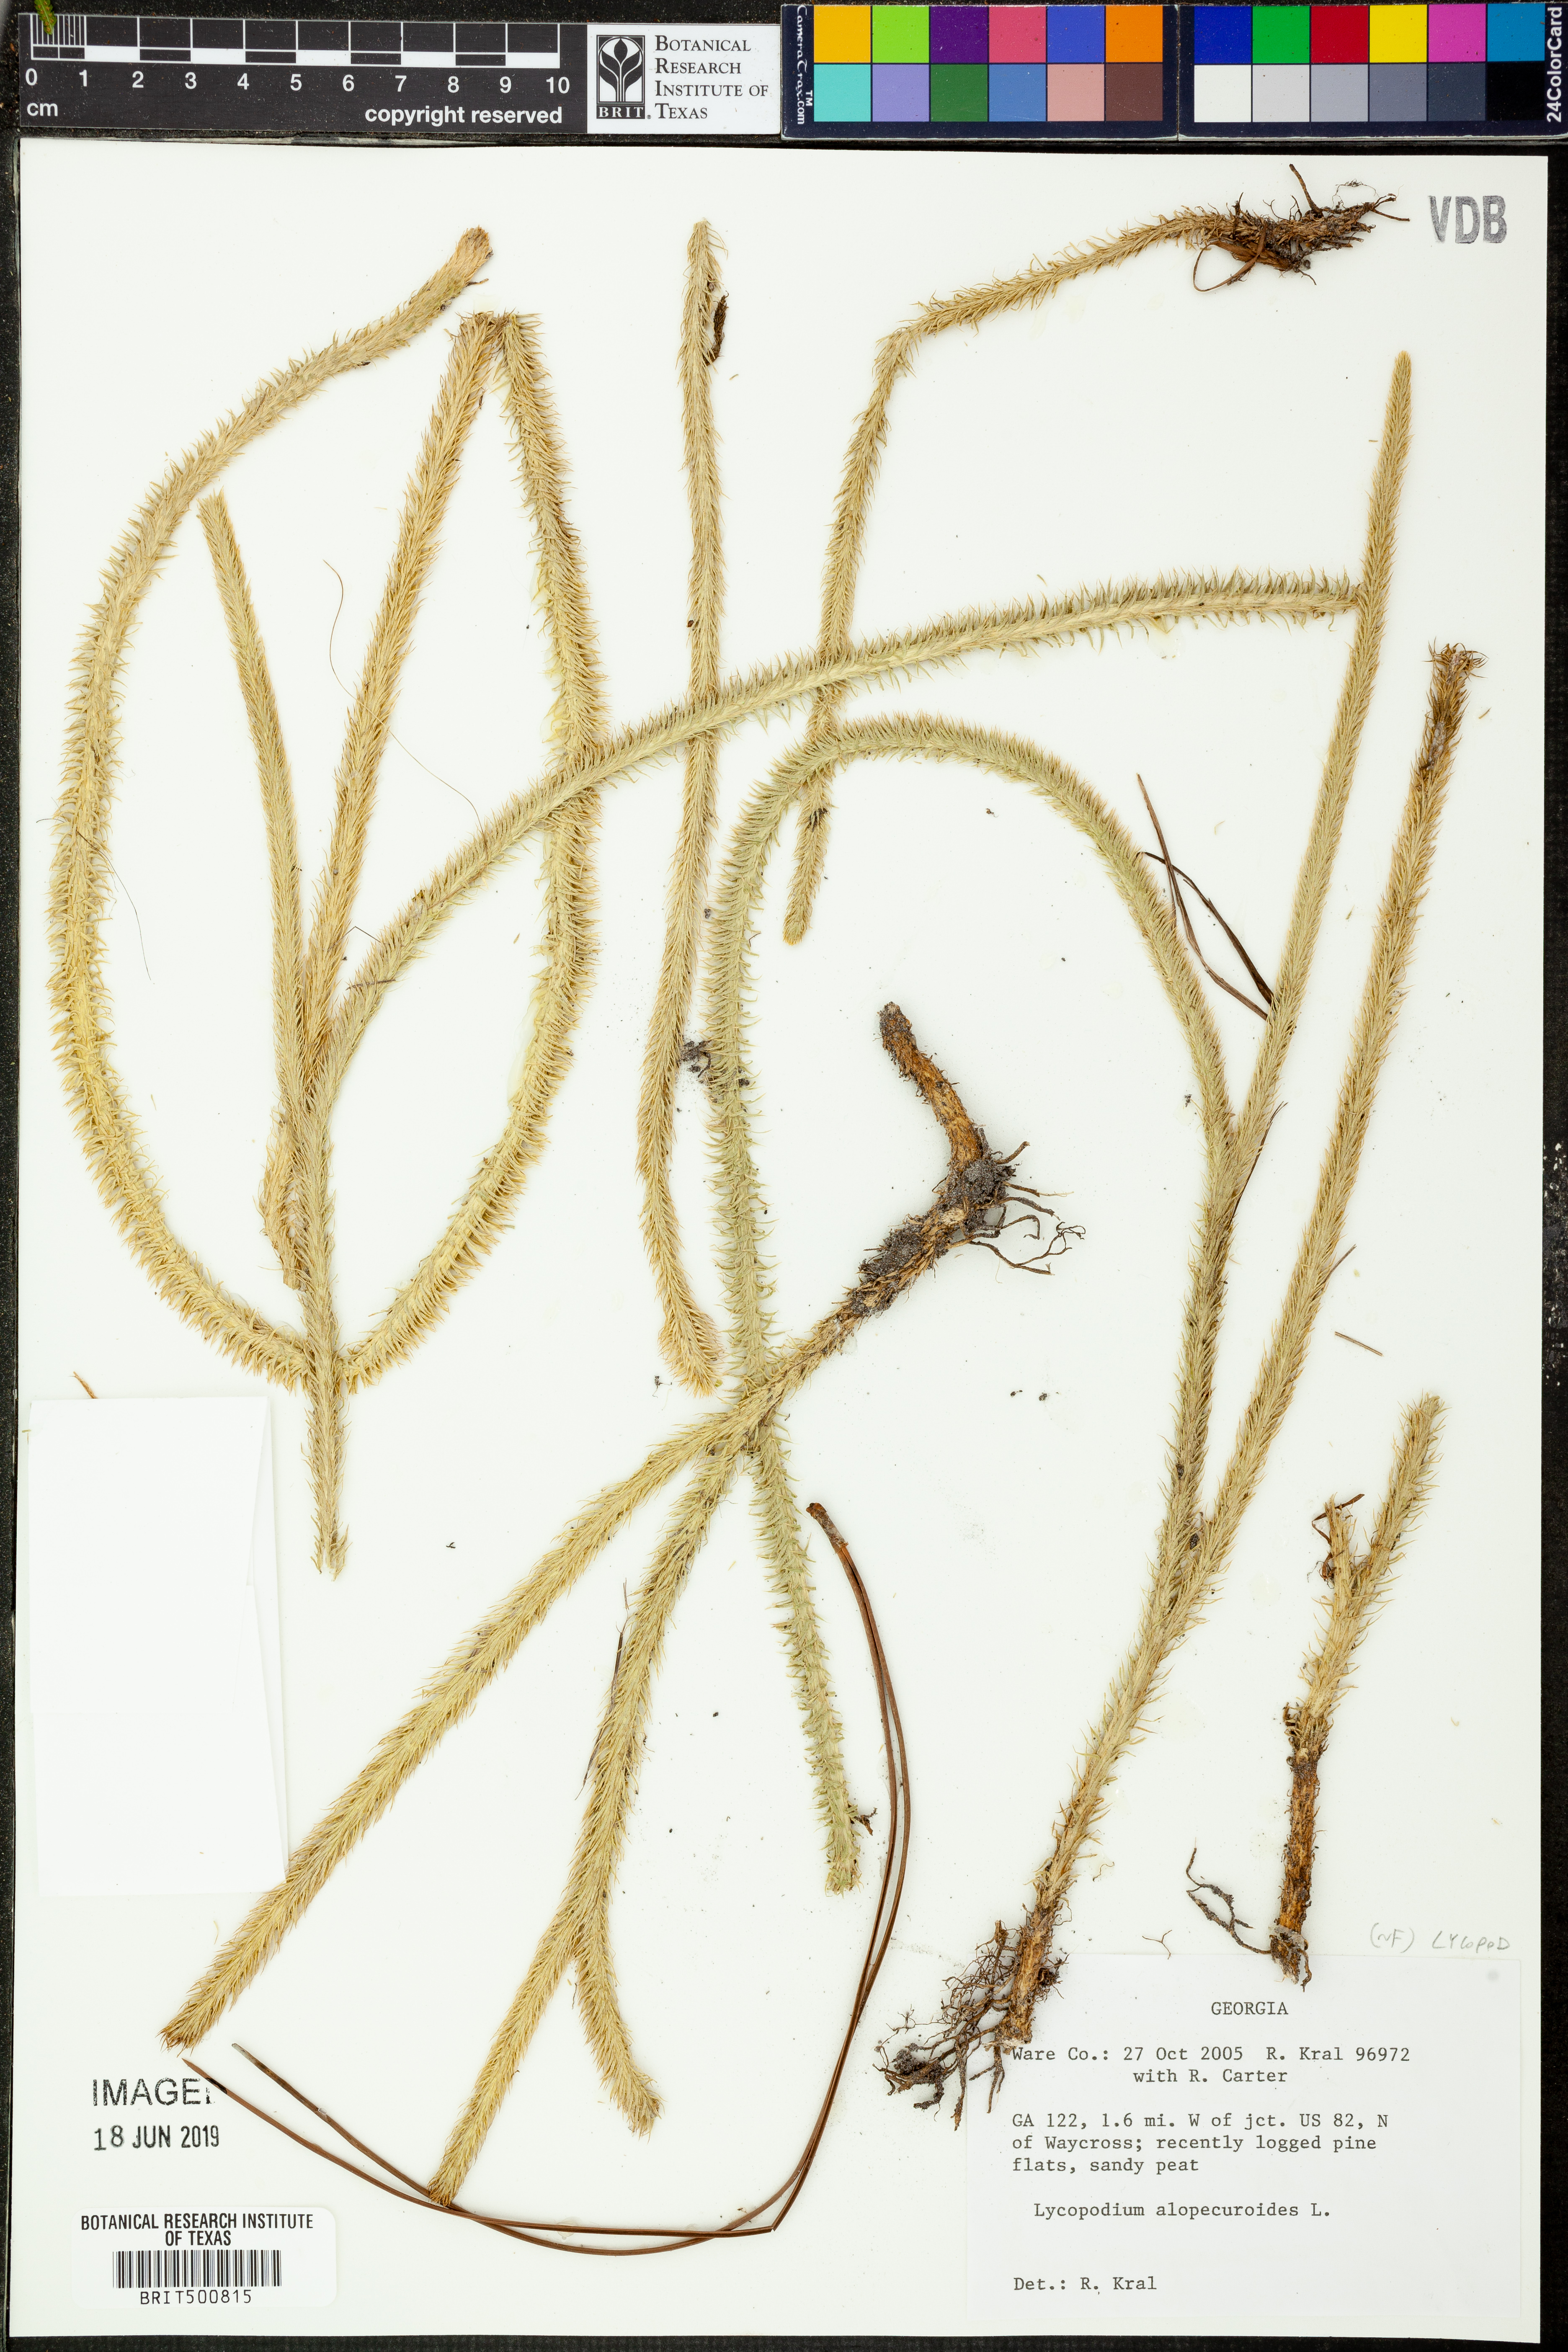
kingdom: Plantae
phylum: Tracheophyta
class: Lycopodiopsida
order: Lycopodiales
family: Lycopodiaceae
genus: Lycopodiella
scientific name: Lycopodiella alopecuroides
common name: Foxtail clubmoss
